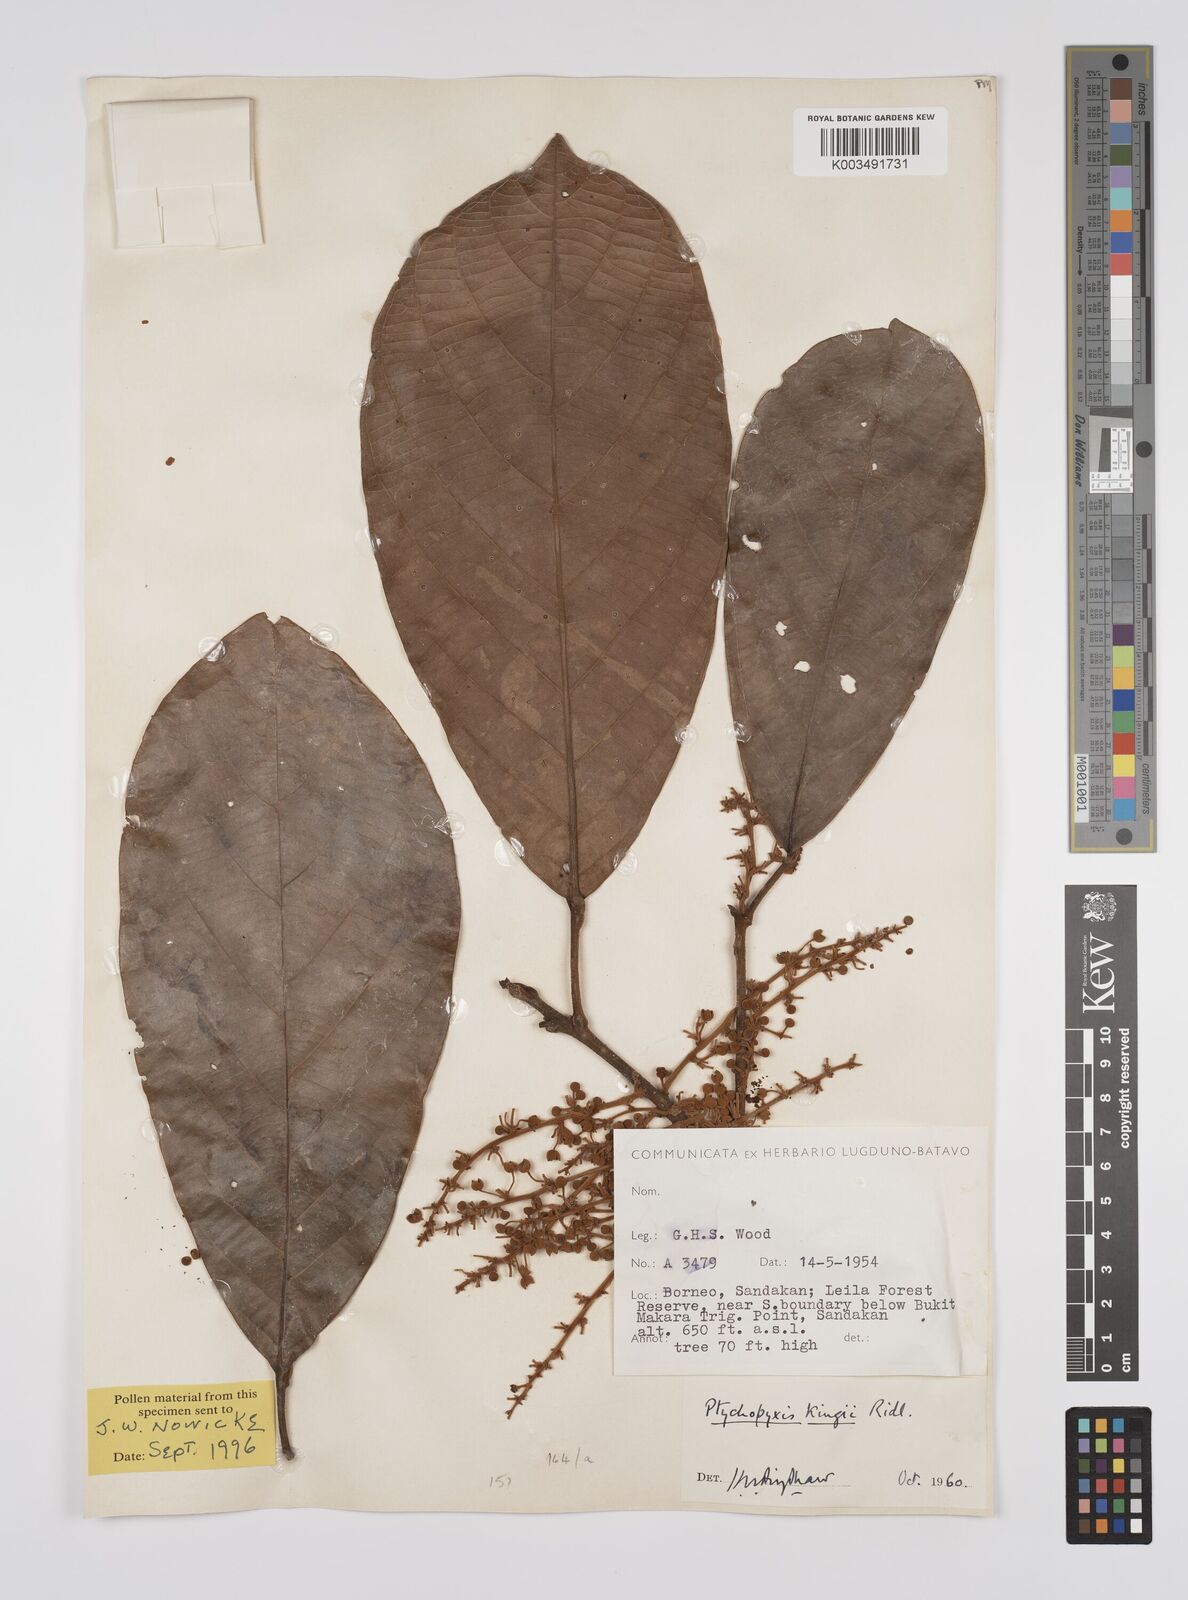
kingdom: Plantae
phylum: Tracheophyta
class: Magnoliopsida
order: Malpighiales
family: Euphorbiaceae
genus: Ptychopyxis
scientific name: Ptychopyxis kingii
